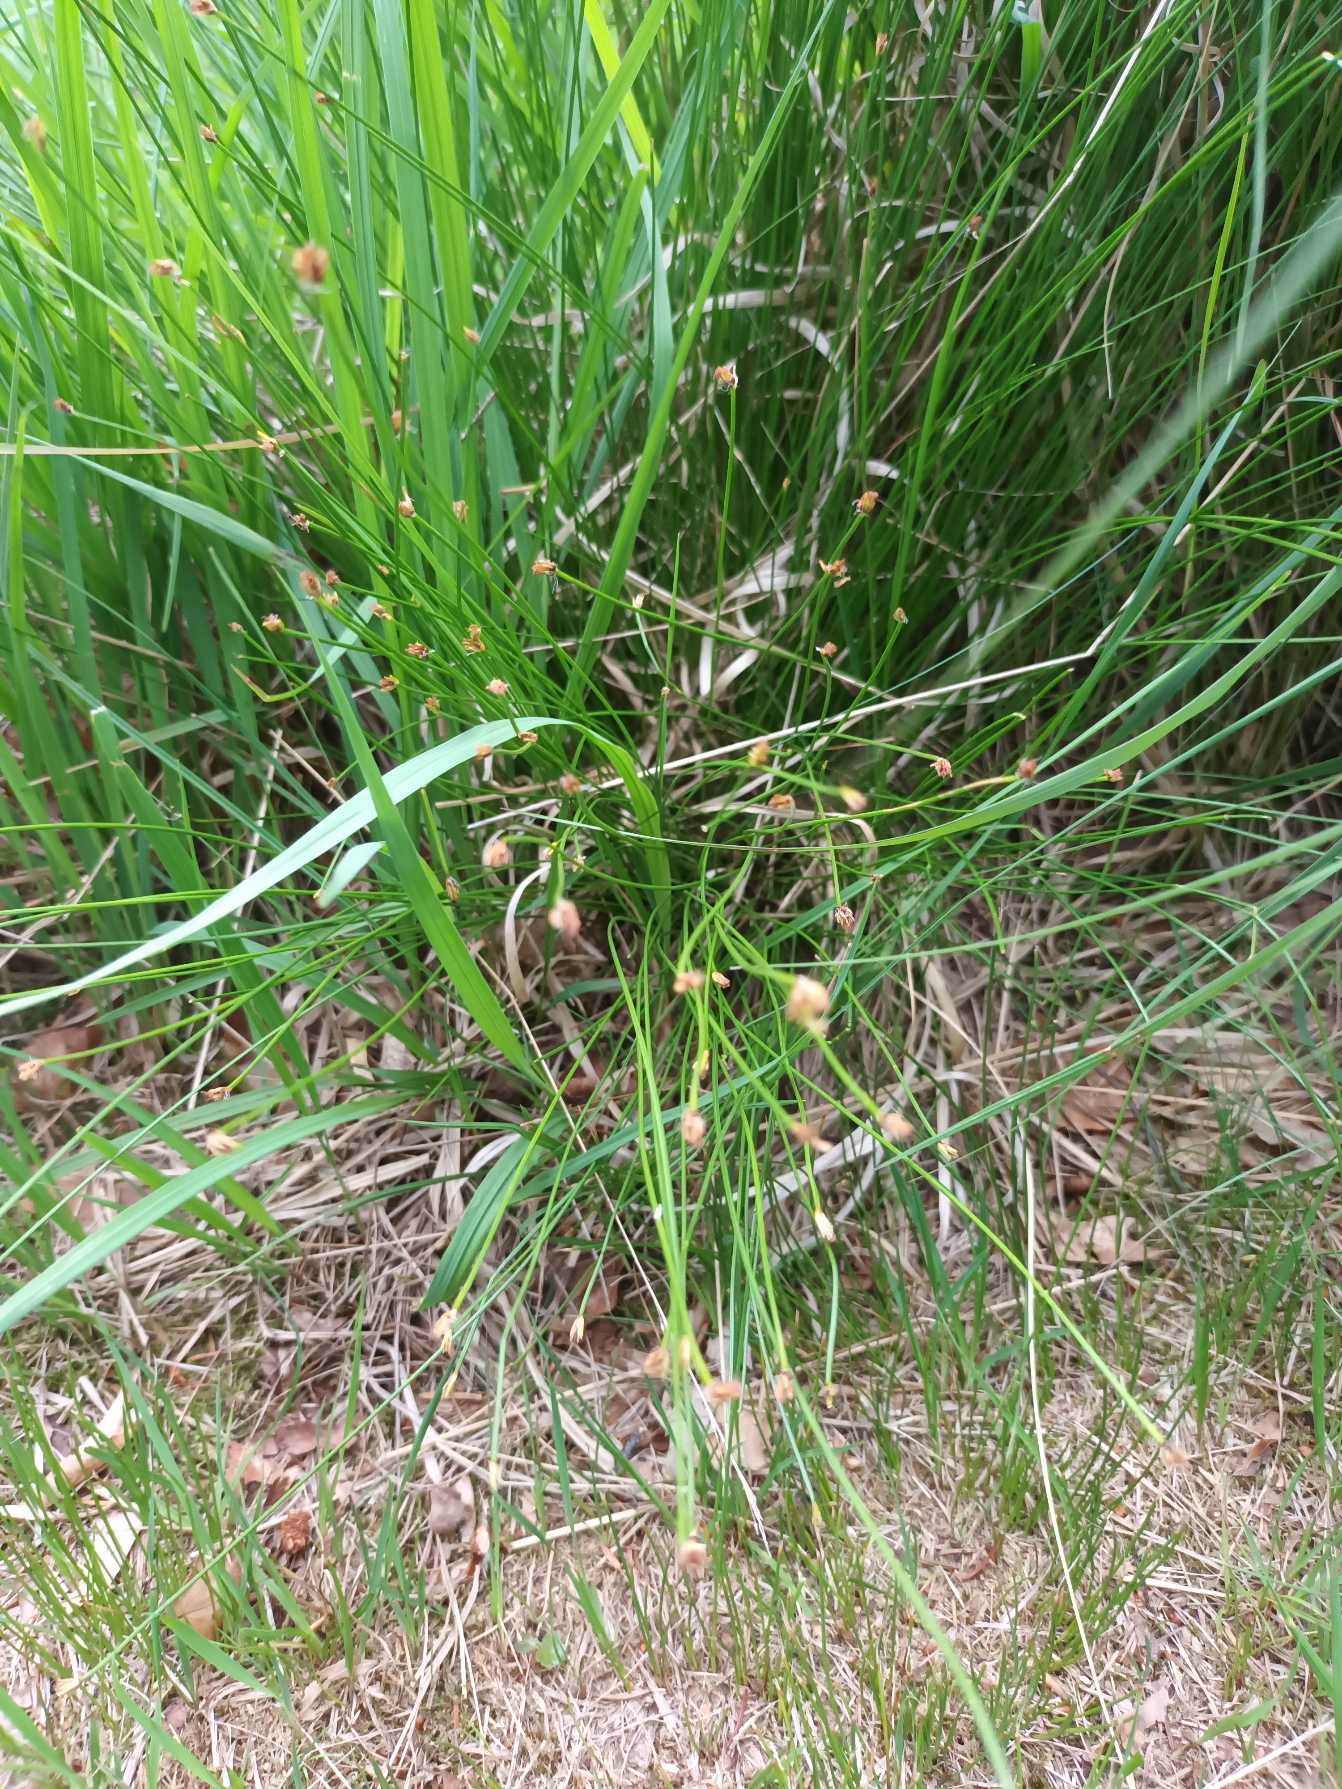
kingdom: Plantae
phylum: Tracheophyta
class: Liliopsida
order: Poales
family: Cyperaceae
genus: Trichophorum
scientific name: Trichophorum cespitosum
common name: Tuekogleaks
